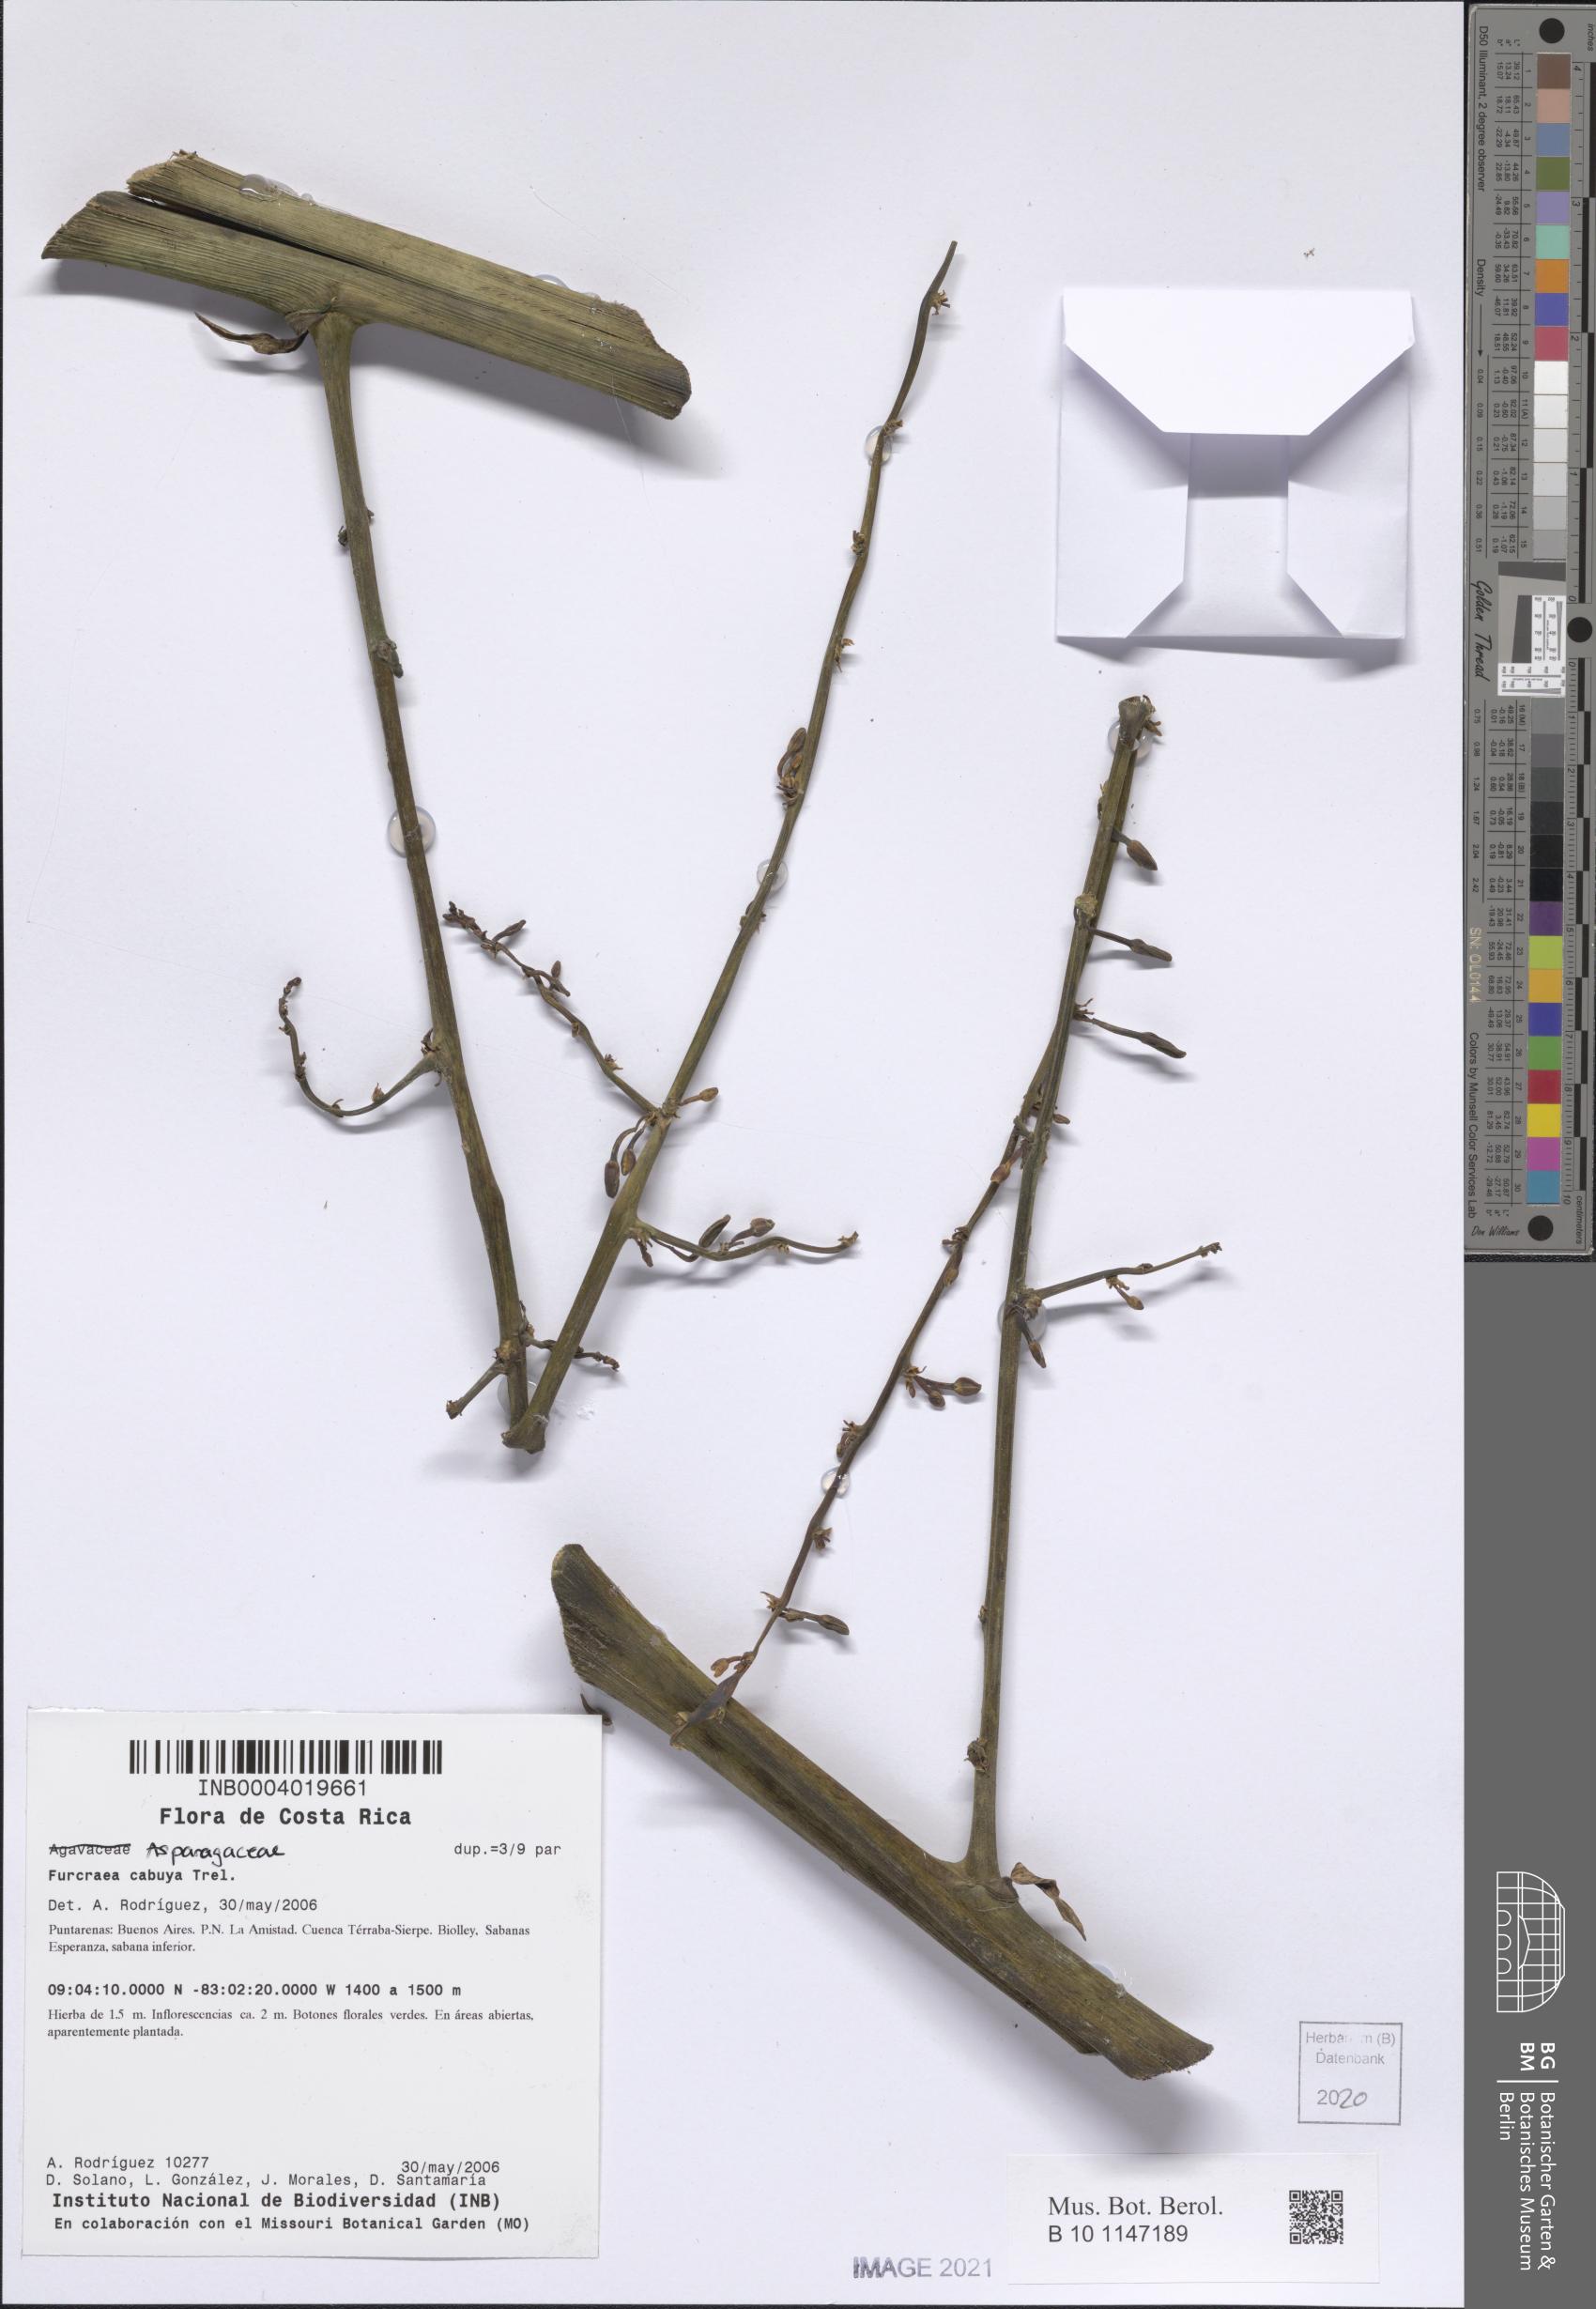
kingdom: Plantae
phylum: Tracheophyta
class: Liliopsida
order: Asparagales
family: Asparagaceae
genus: Furcraea
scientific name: Furcraea cabuya
